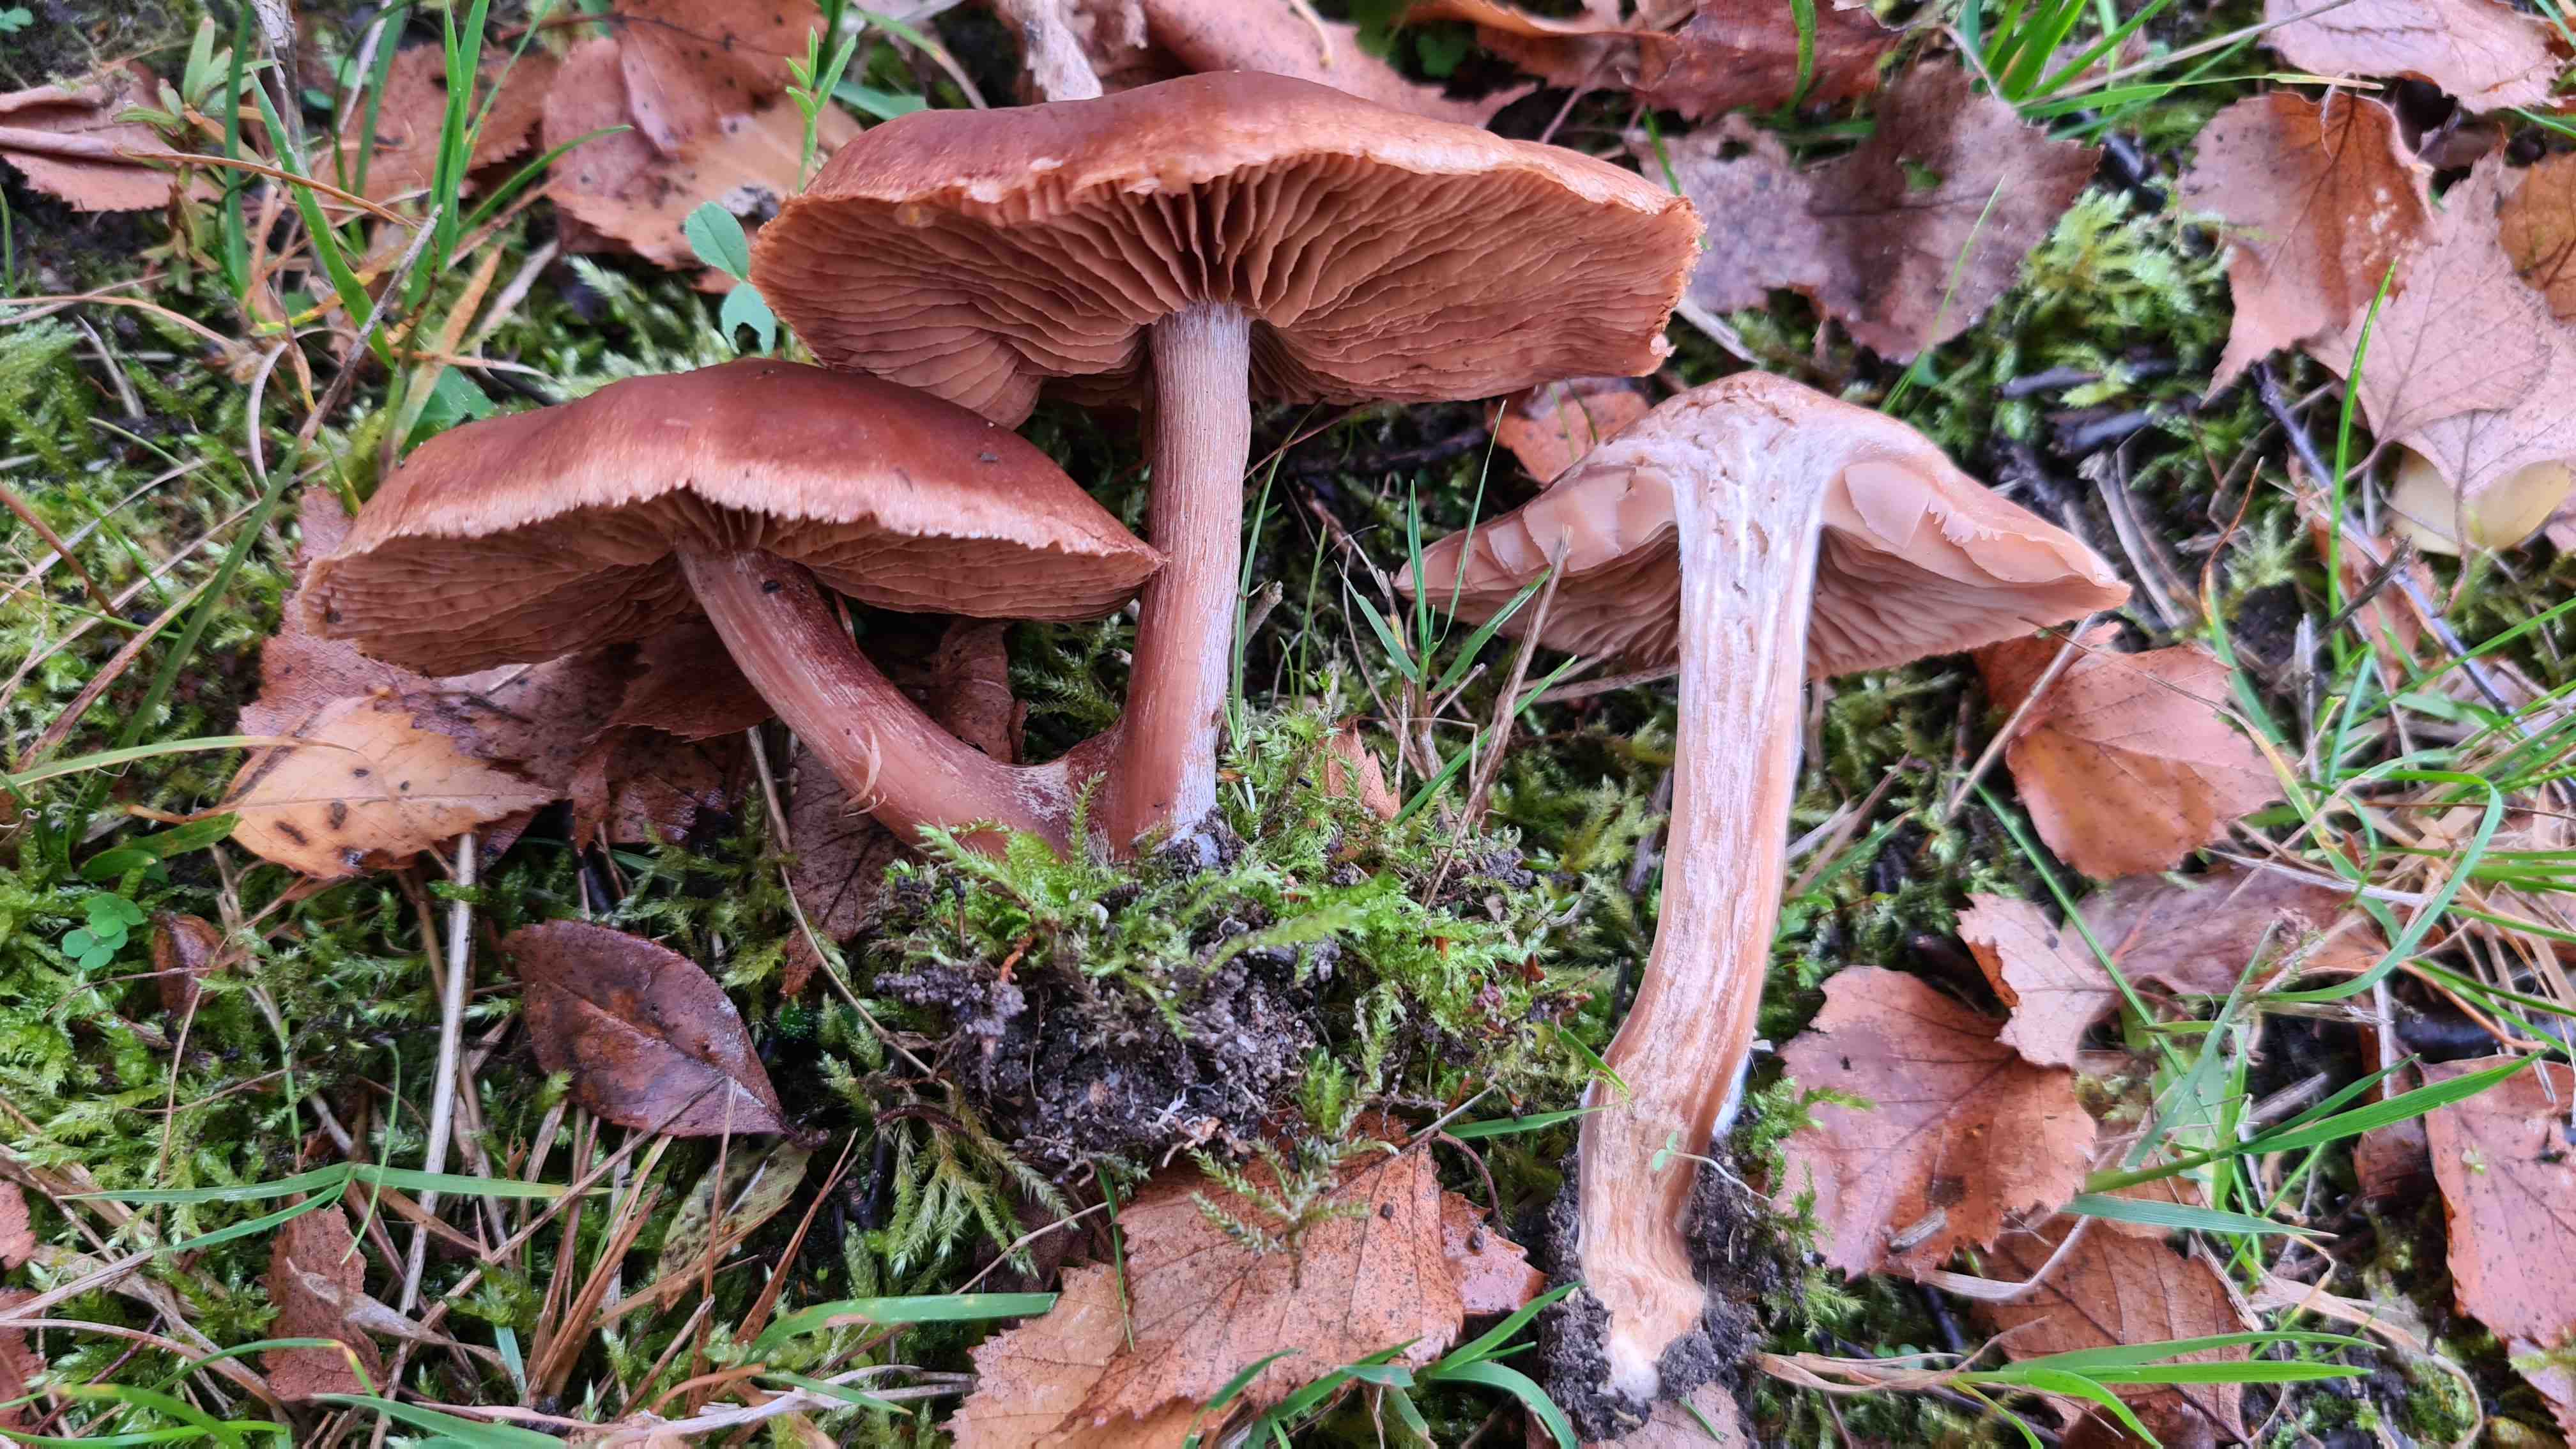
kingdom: Fungi
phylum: Basidiomycota
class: Agaricomycetes
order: Agaricales
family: Cortinariaceae
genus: Cortinarius
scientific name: Cortinarius
